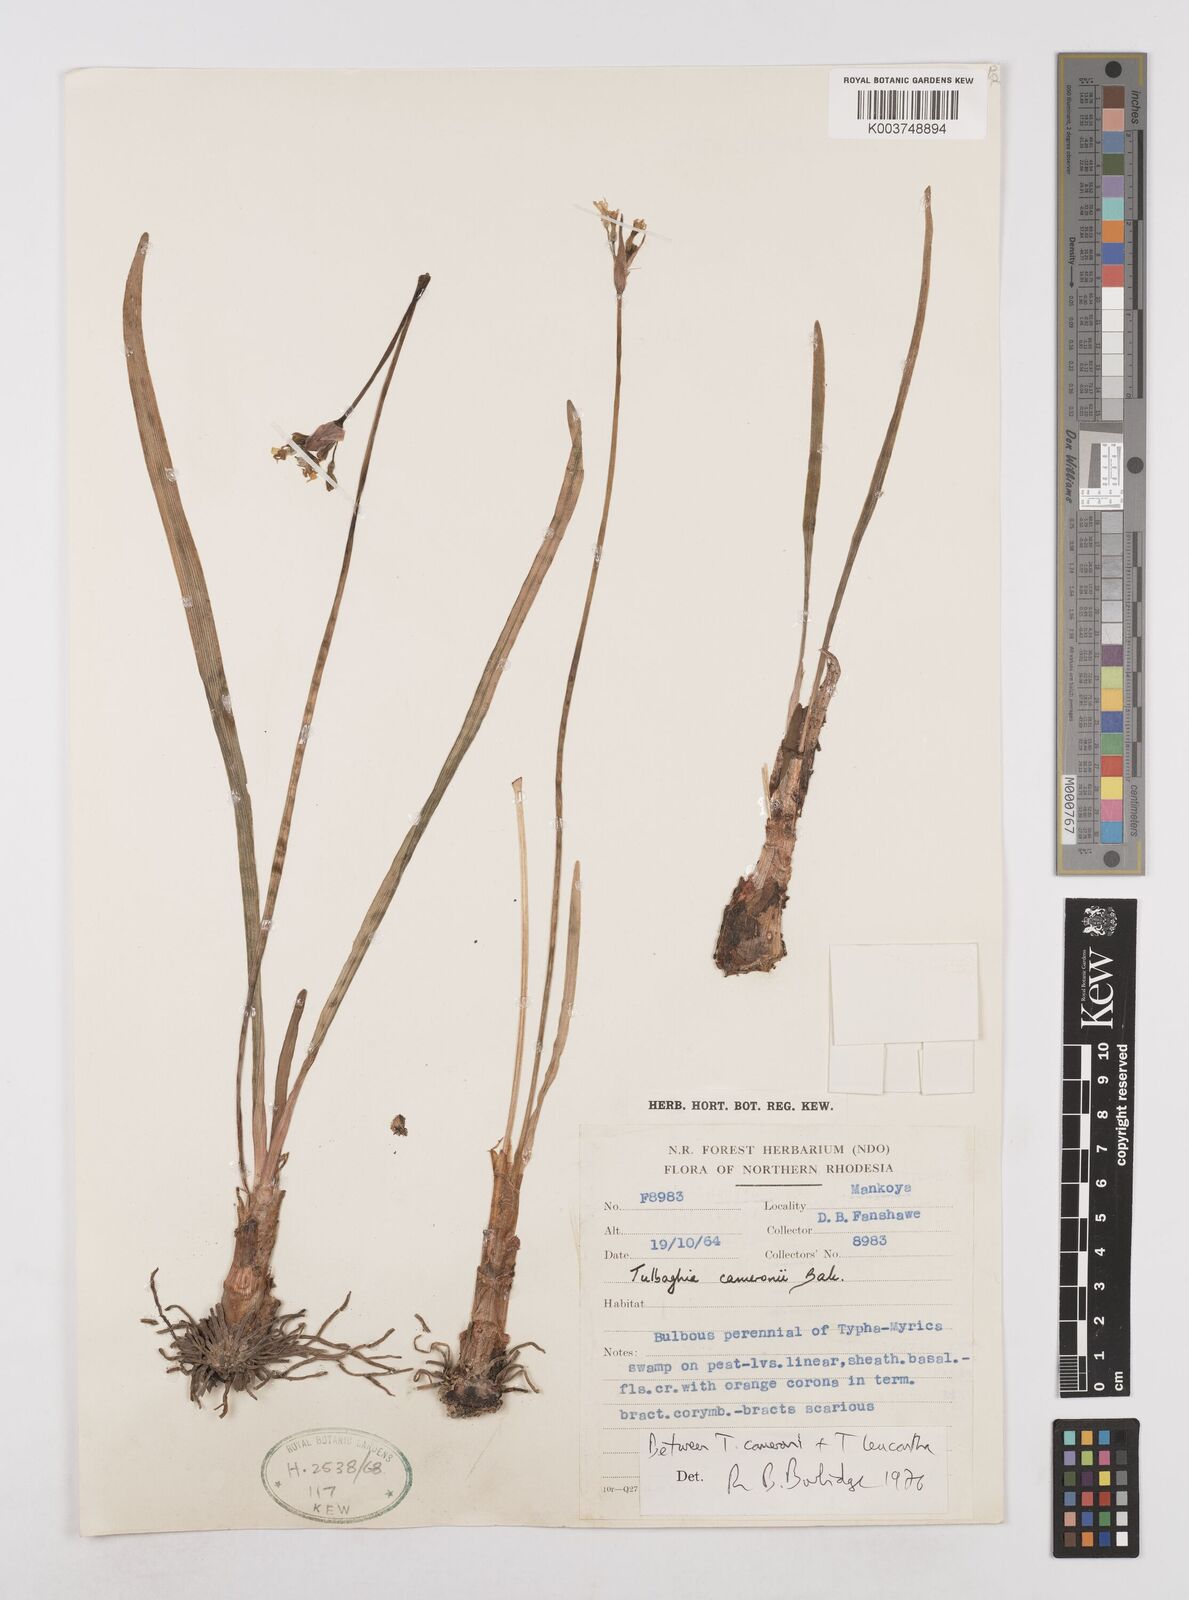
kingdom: Plantae
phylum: Tracheophyta
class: Liliopsida
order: Asparagales
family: Amaryllidaceae
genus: Tulbaghia
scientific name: Tulbaghia
